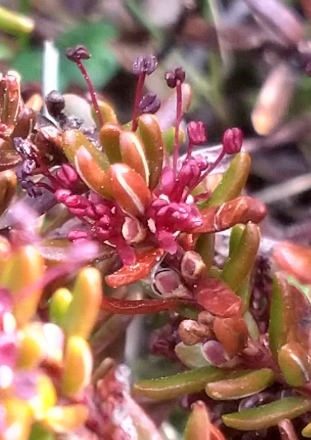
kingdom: Plantae
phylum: Tracheophyta
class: Magnoliopsida
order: Ericales
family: Ericaceae
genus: Empetrum
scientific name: Empetrum nigrum
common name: Revling
